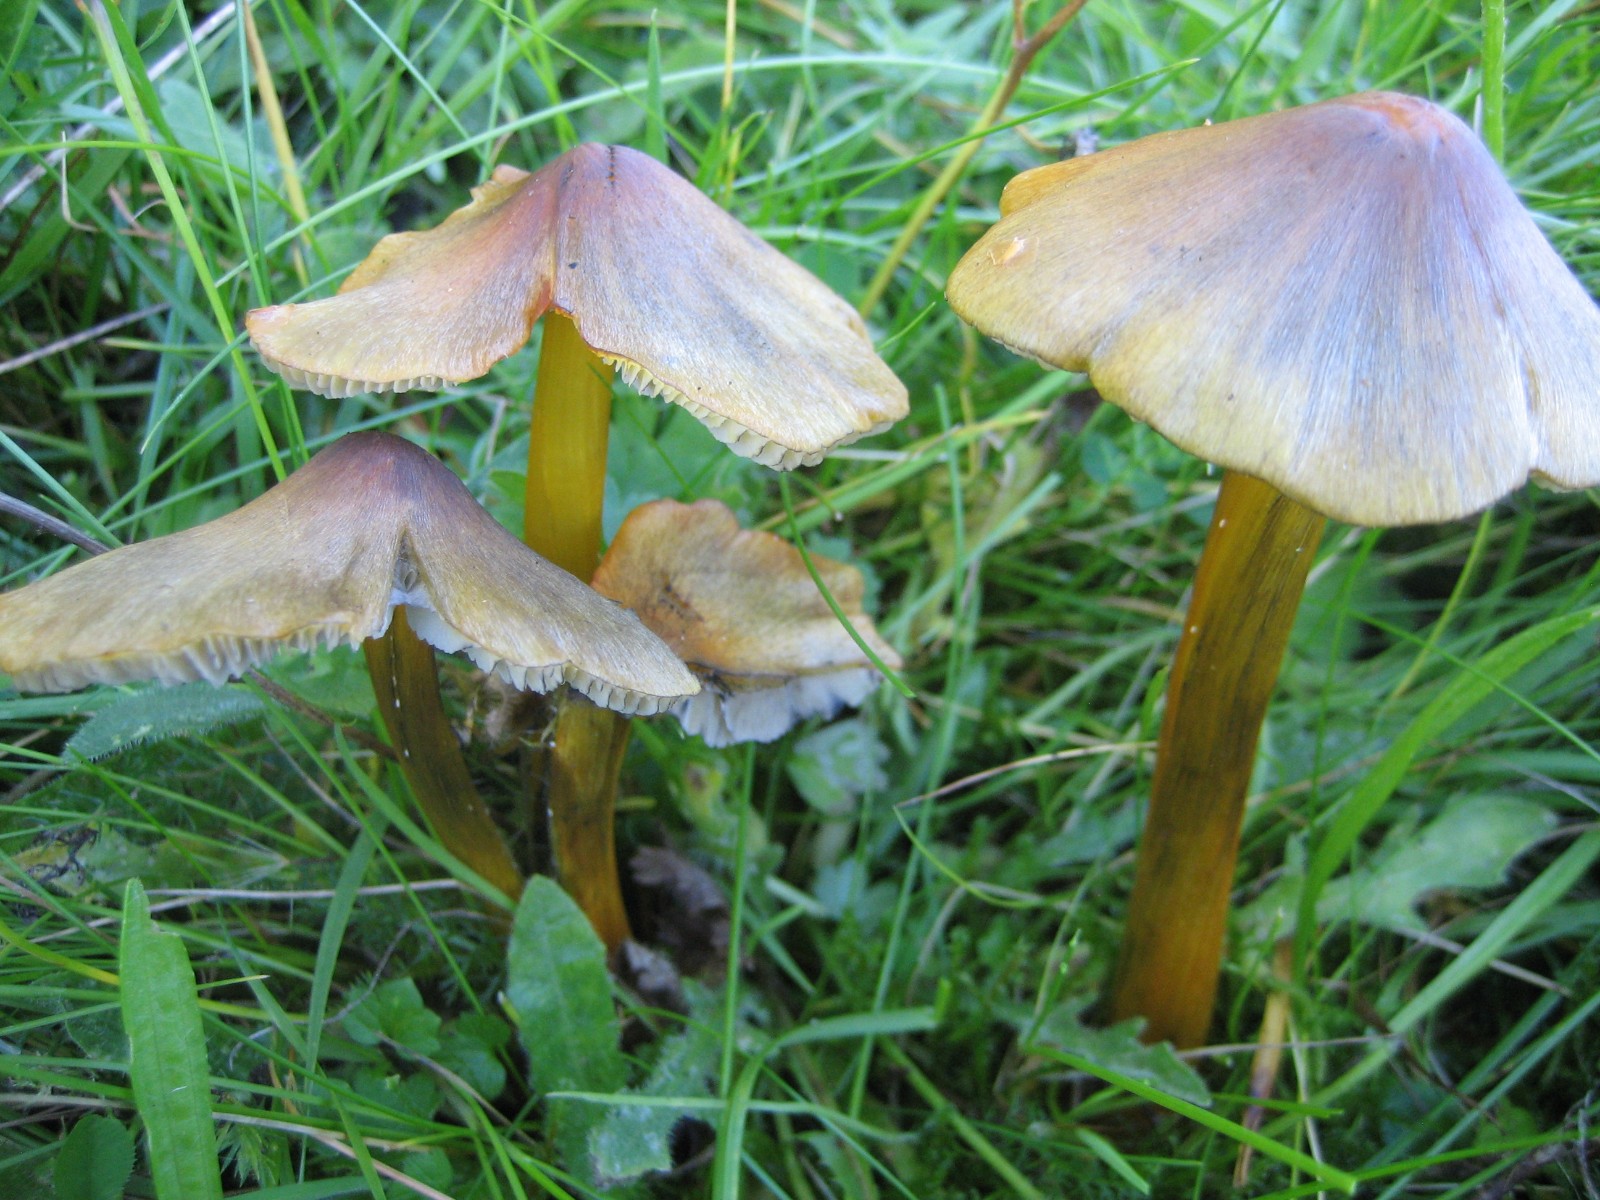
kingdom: Fungi
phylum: Basidiomycota
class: Agaricomycetes
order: Agaricales
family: Hygrophoraceae
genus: Hygrocybe
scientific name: Hygrocybe conica
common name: kegle-vokshat
